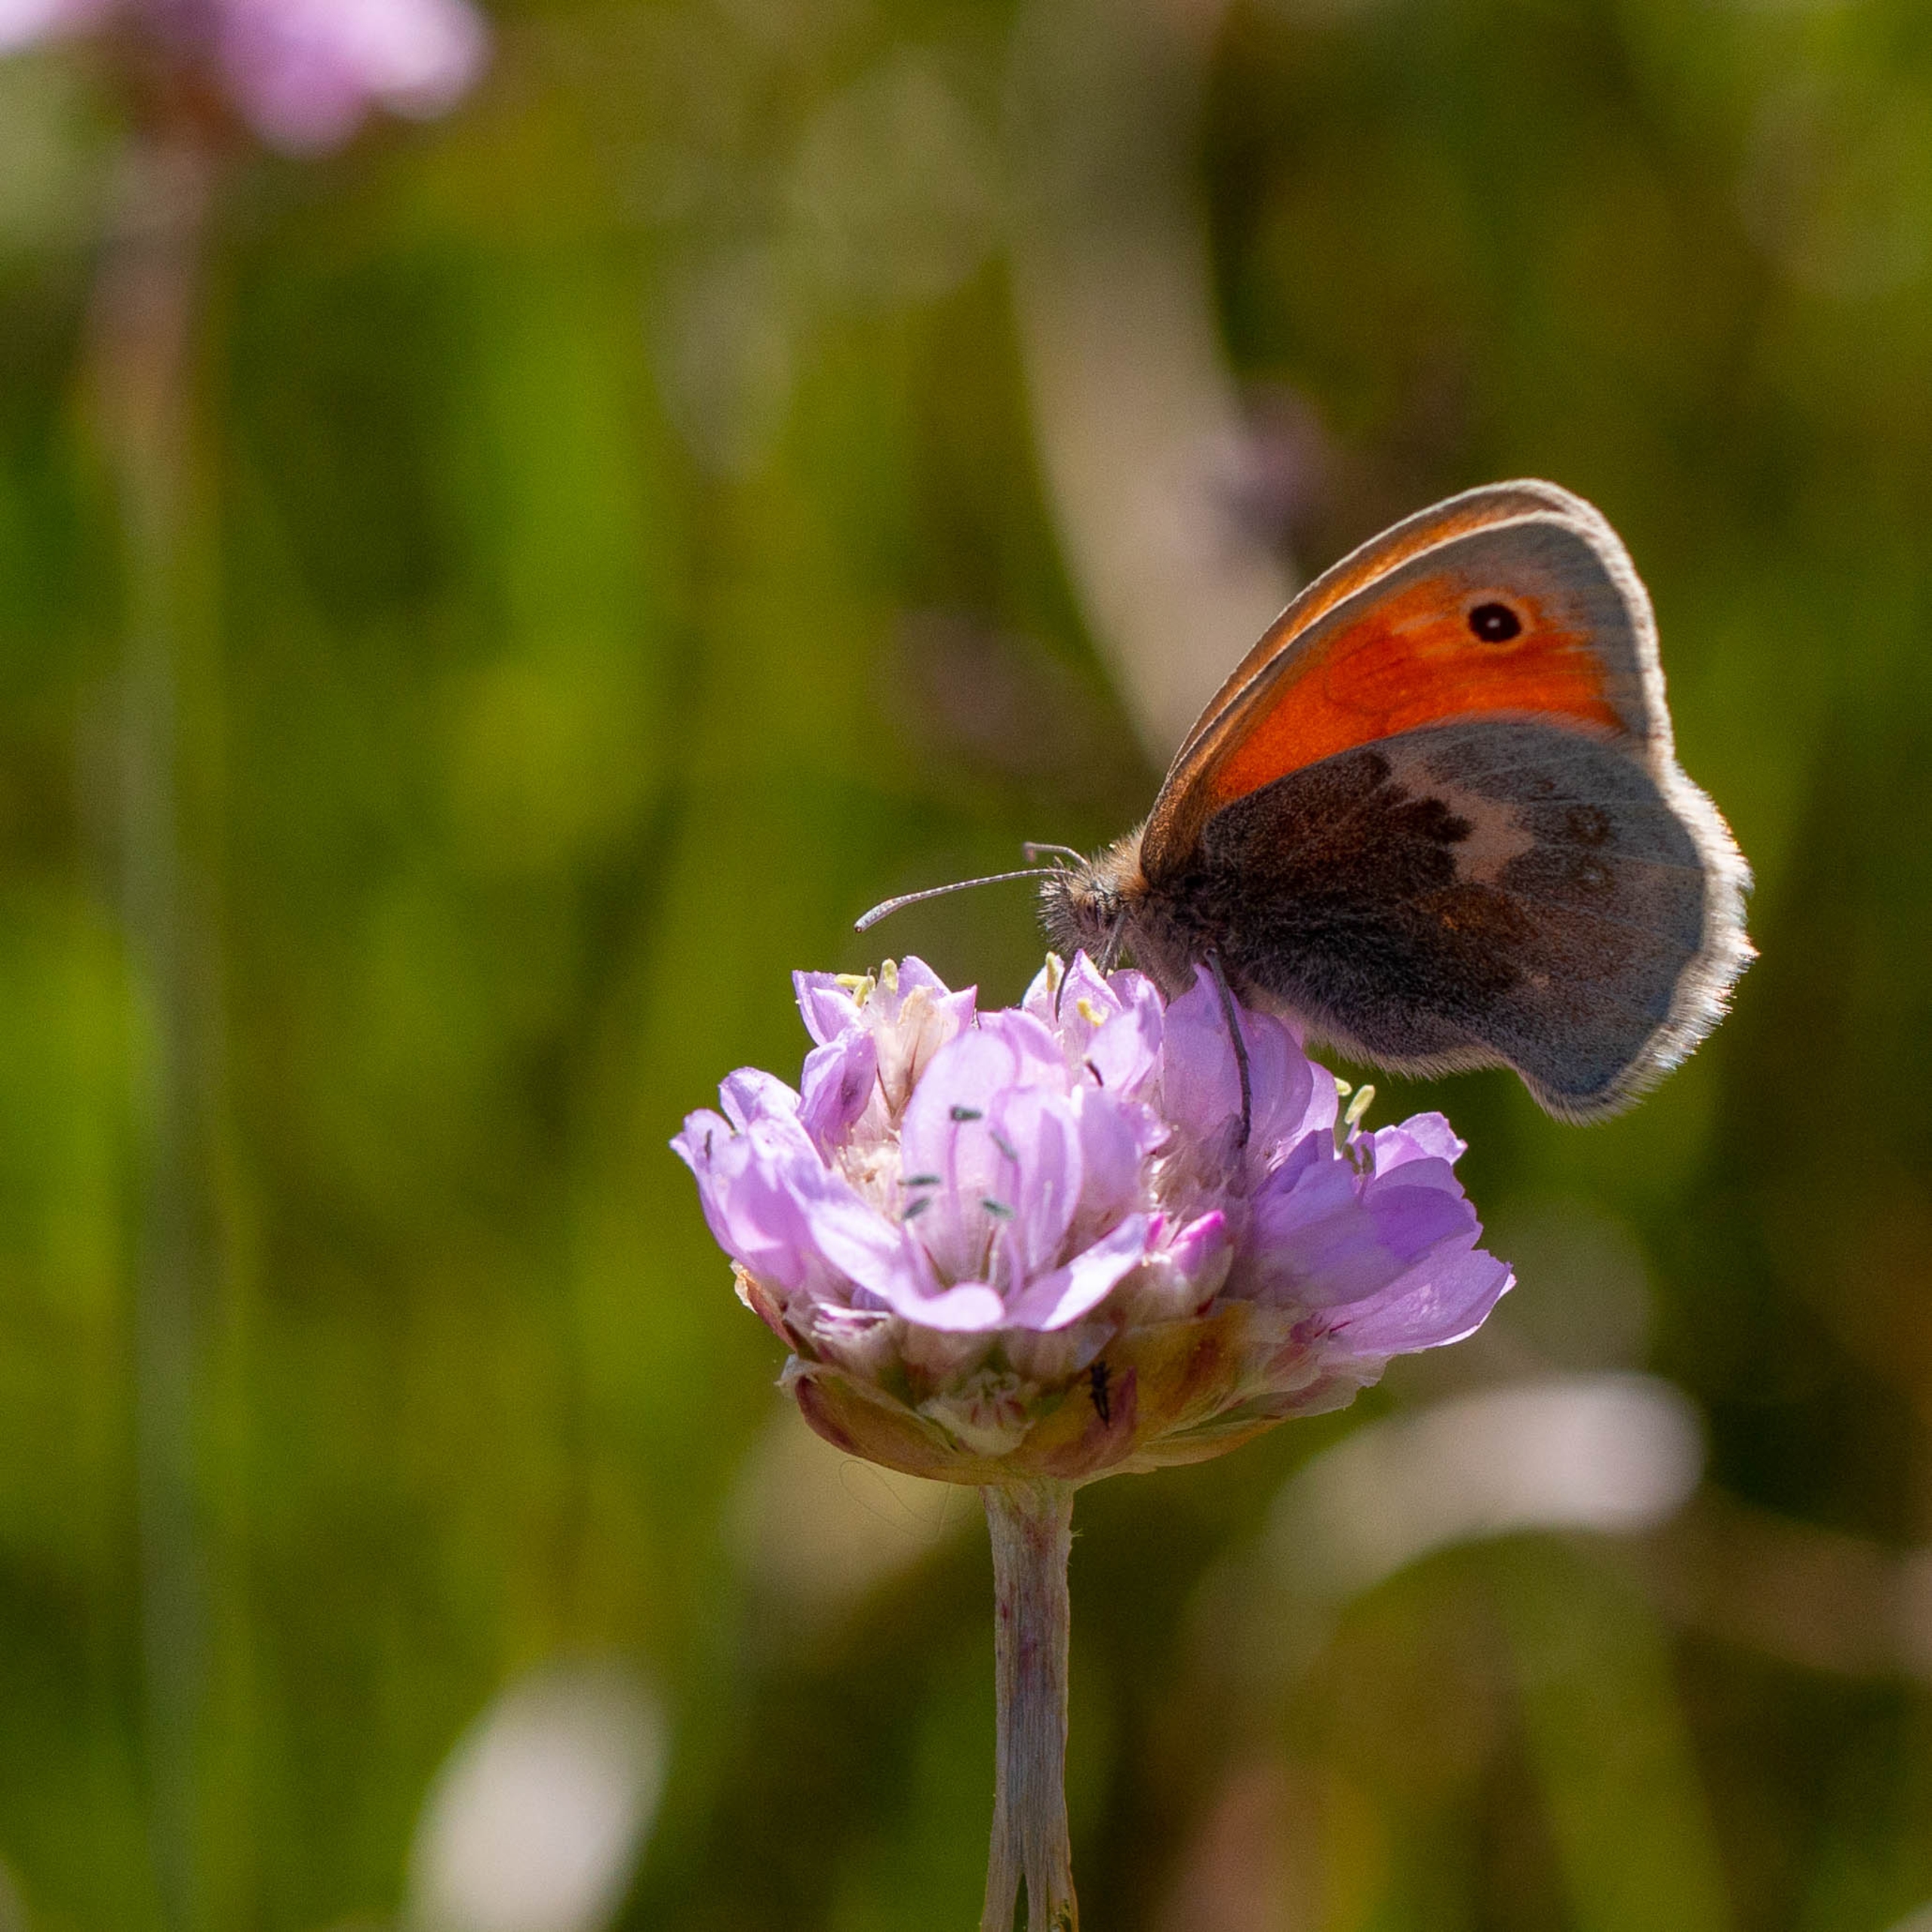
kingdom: Animalia
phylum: Arthropoda
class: Insecta
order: Lepidoptera
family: Nymphalidae
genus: Coenonympha
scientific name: Coenonympha pamphilus
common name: Okkergul randøje
